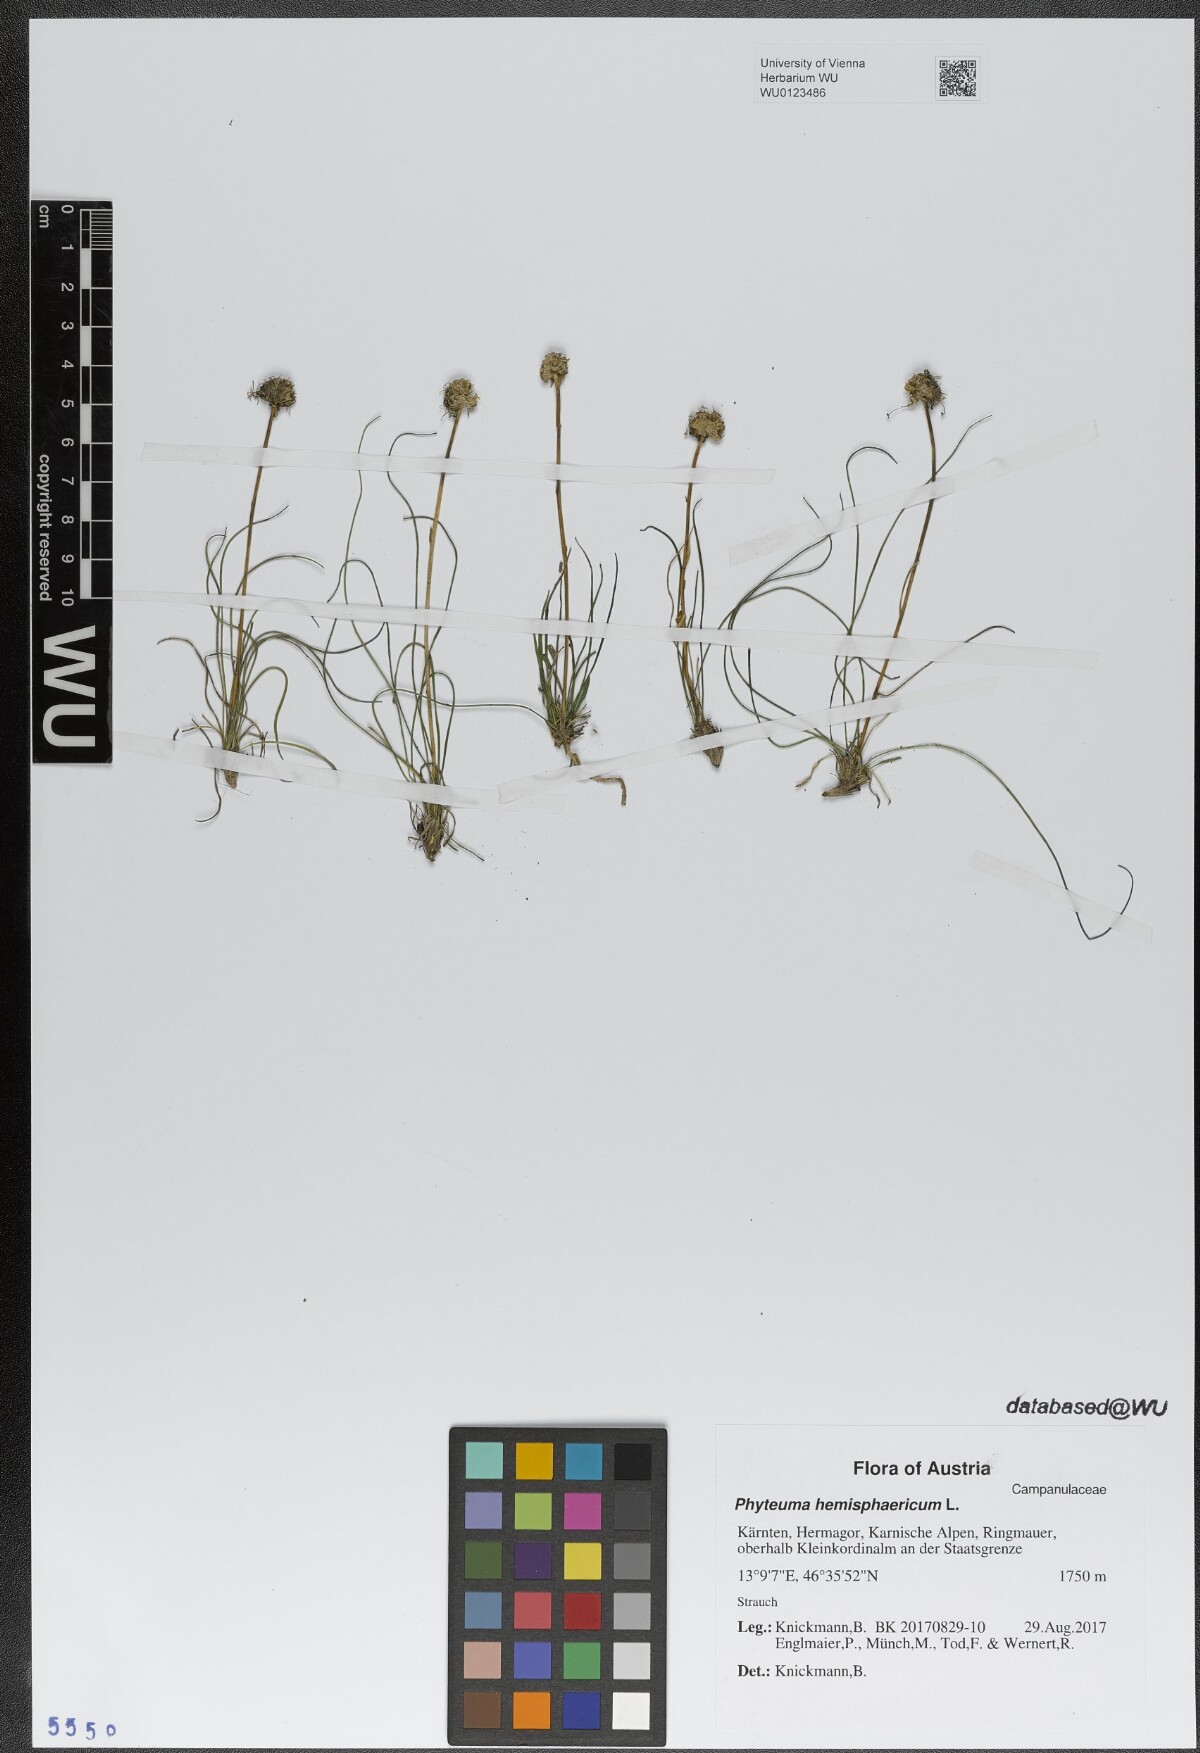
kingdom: Plantae
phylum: Tracheophyta
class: Magnoliopsida
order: Asterales
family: Campanulaceae
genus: Phyteuma
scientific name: Phyteuma hemisphaericum
